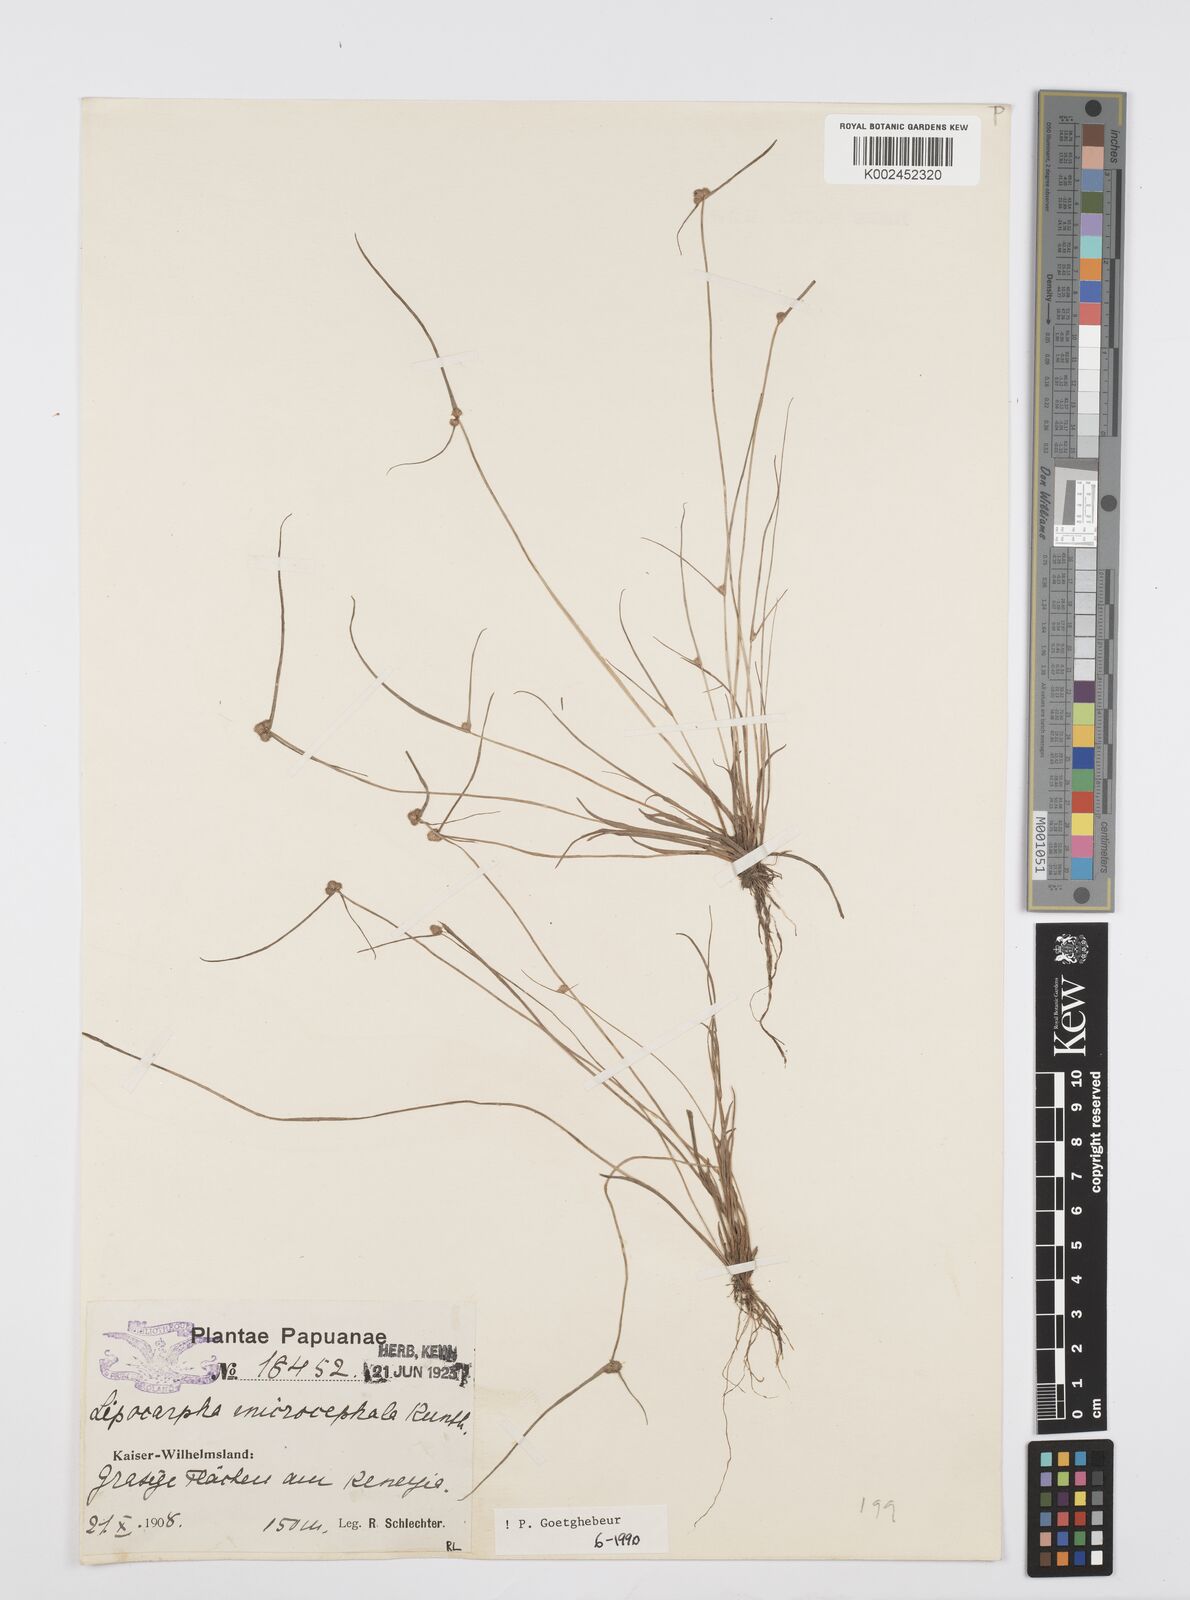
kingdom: Plantae
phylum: Tracheophyta
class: Liliopsida
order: Poales
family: Cyperaceae
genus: Cyperus
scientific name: Cyperus microcephalus
